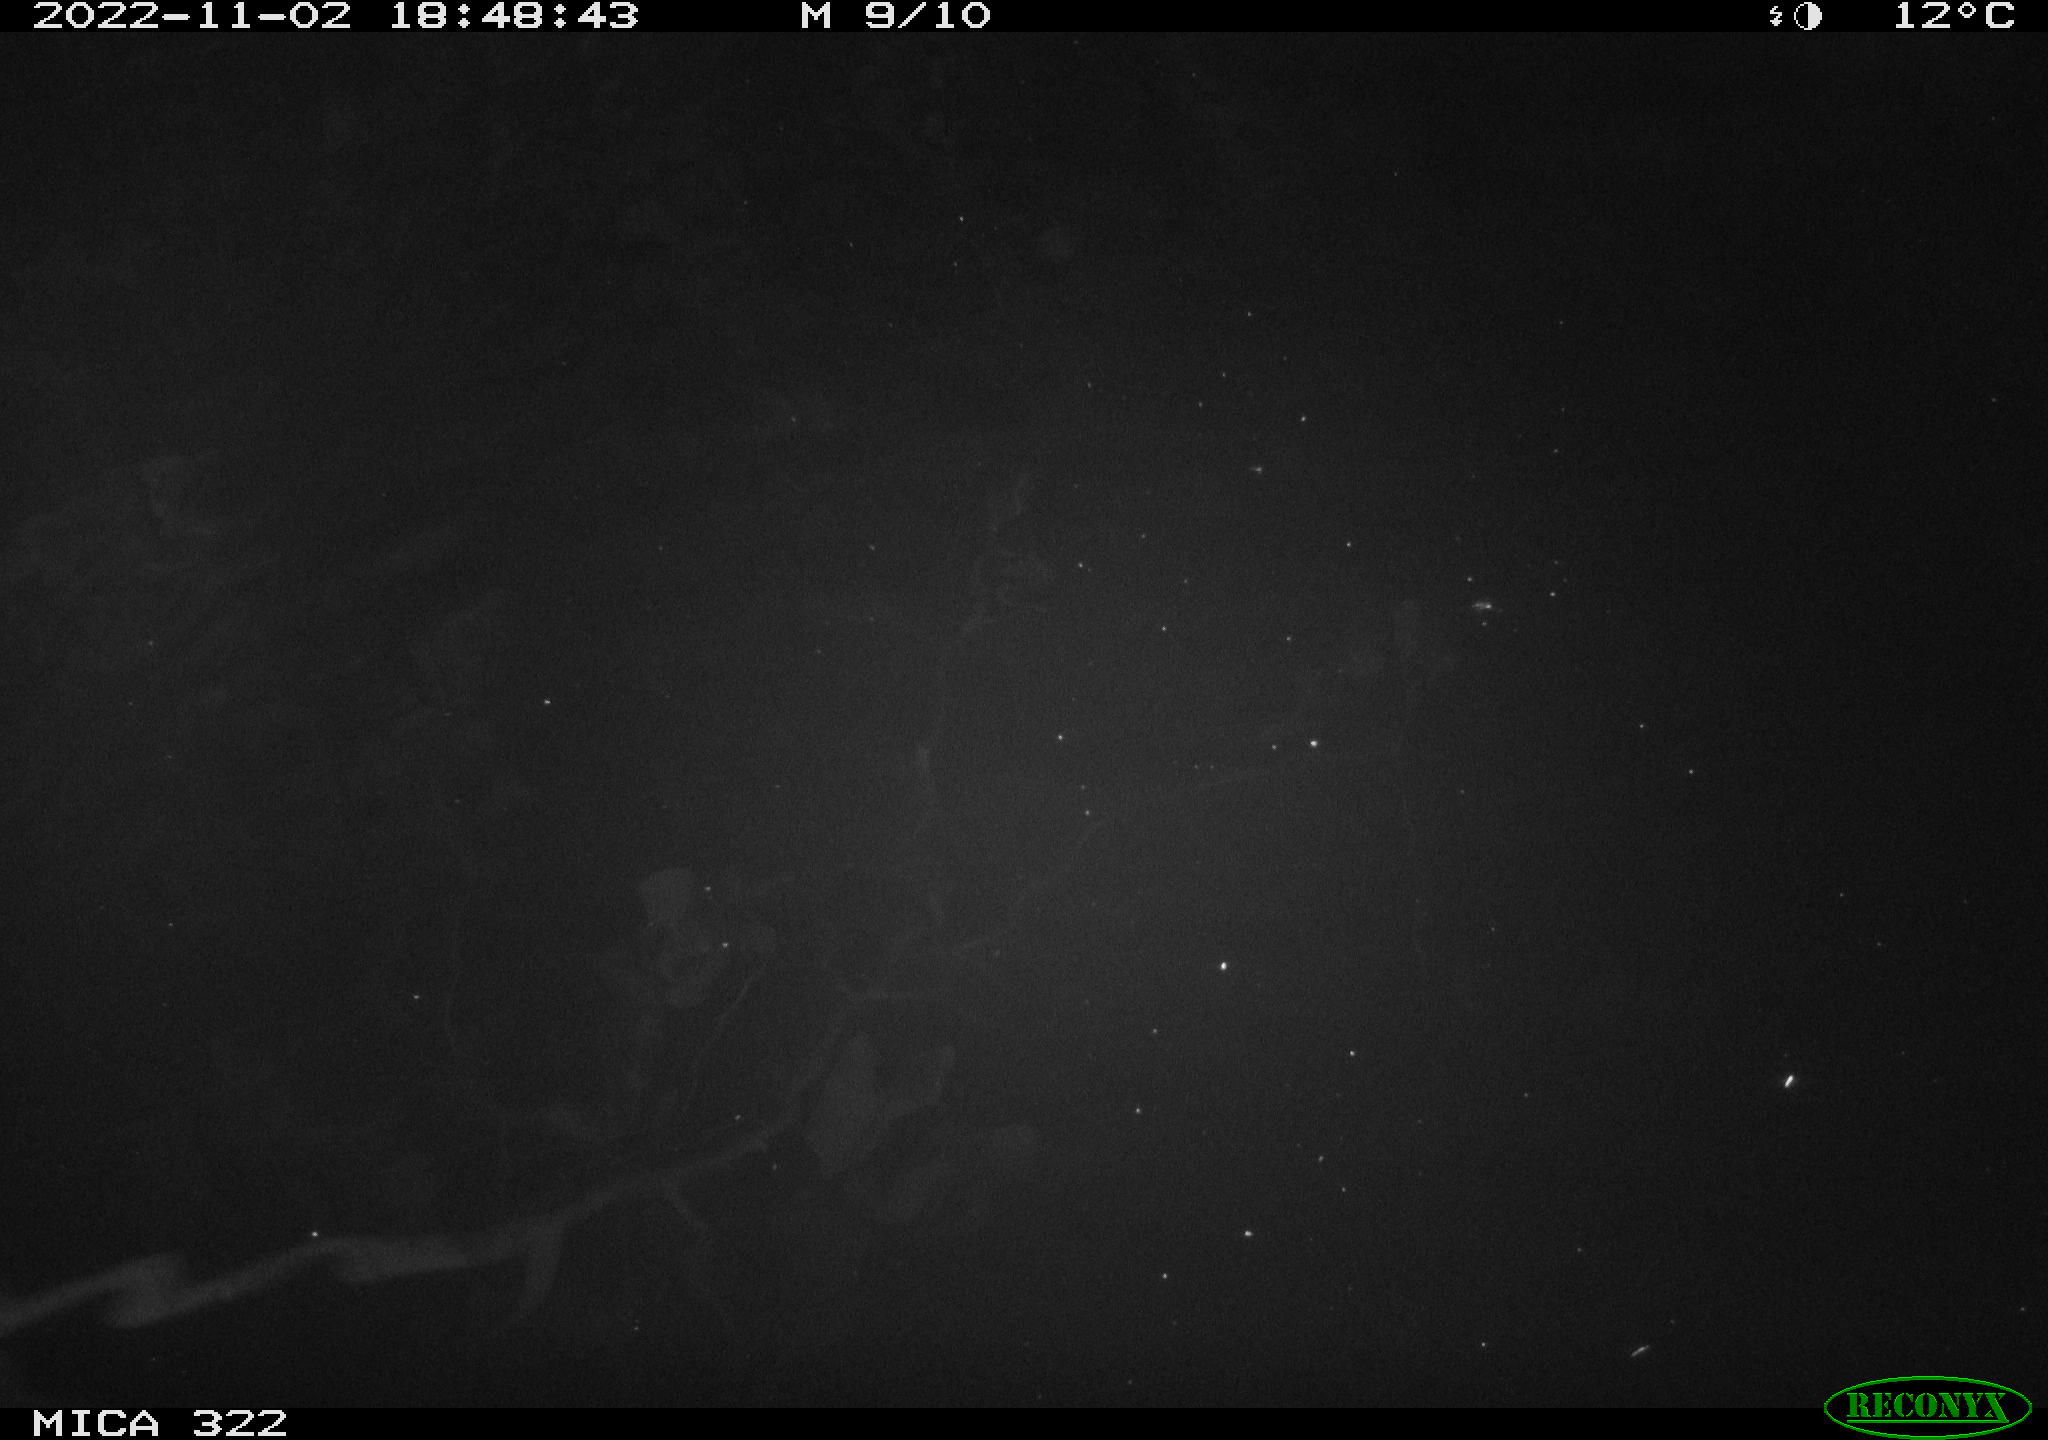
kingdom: Animalia
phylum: Chordata
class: Mammalia
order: Rodentia
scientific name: Rodentia
